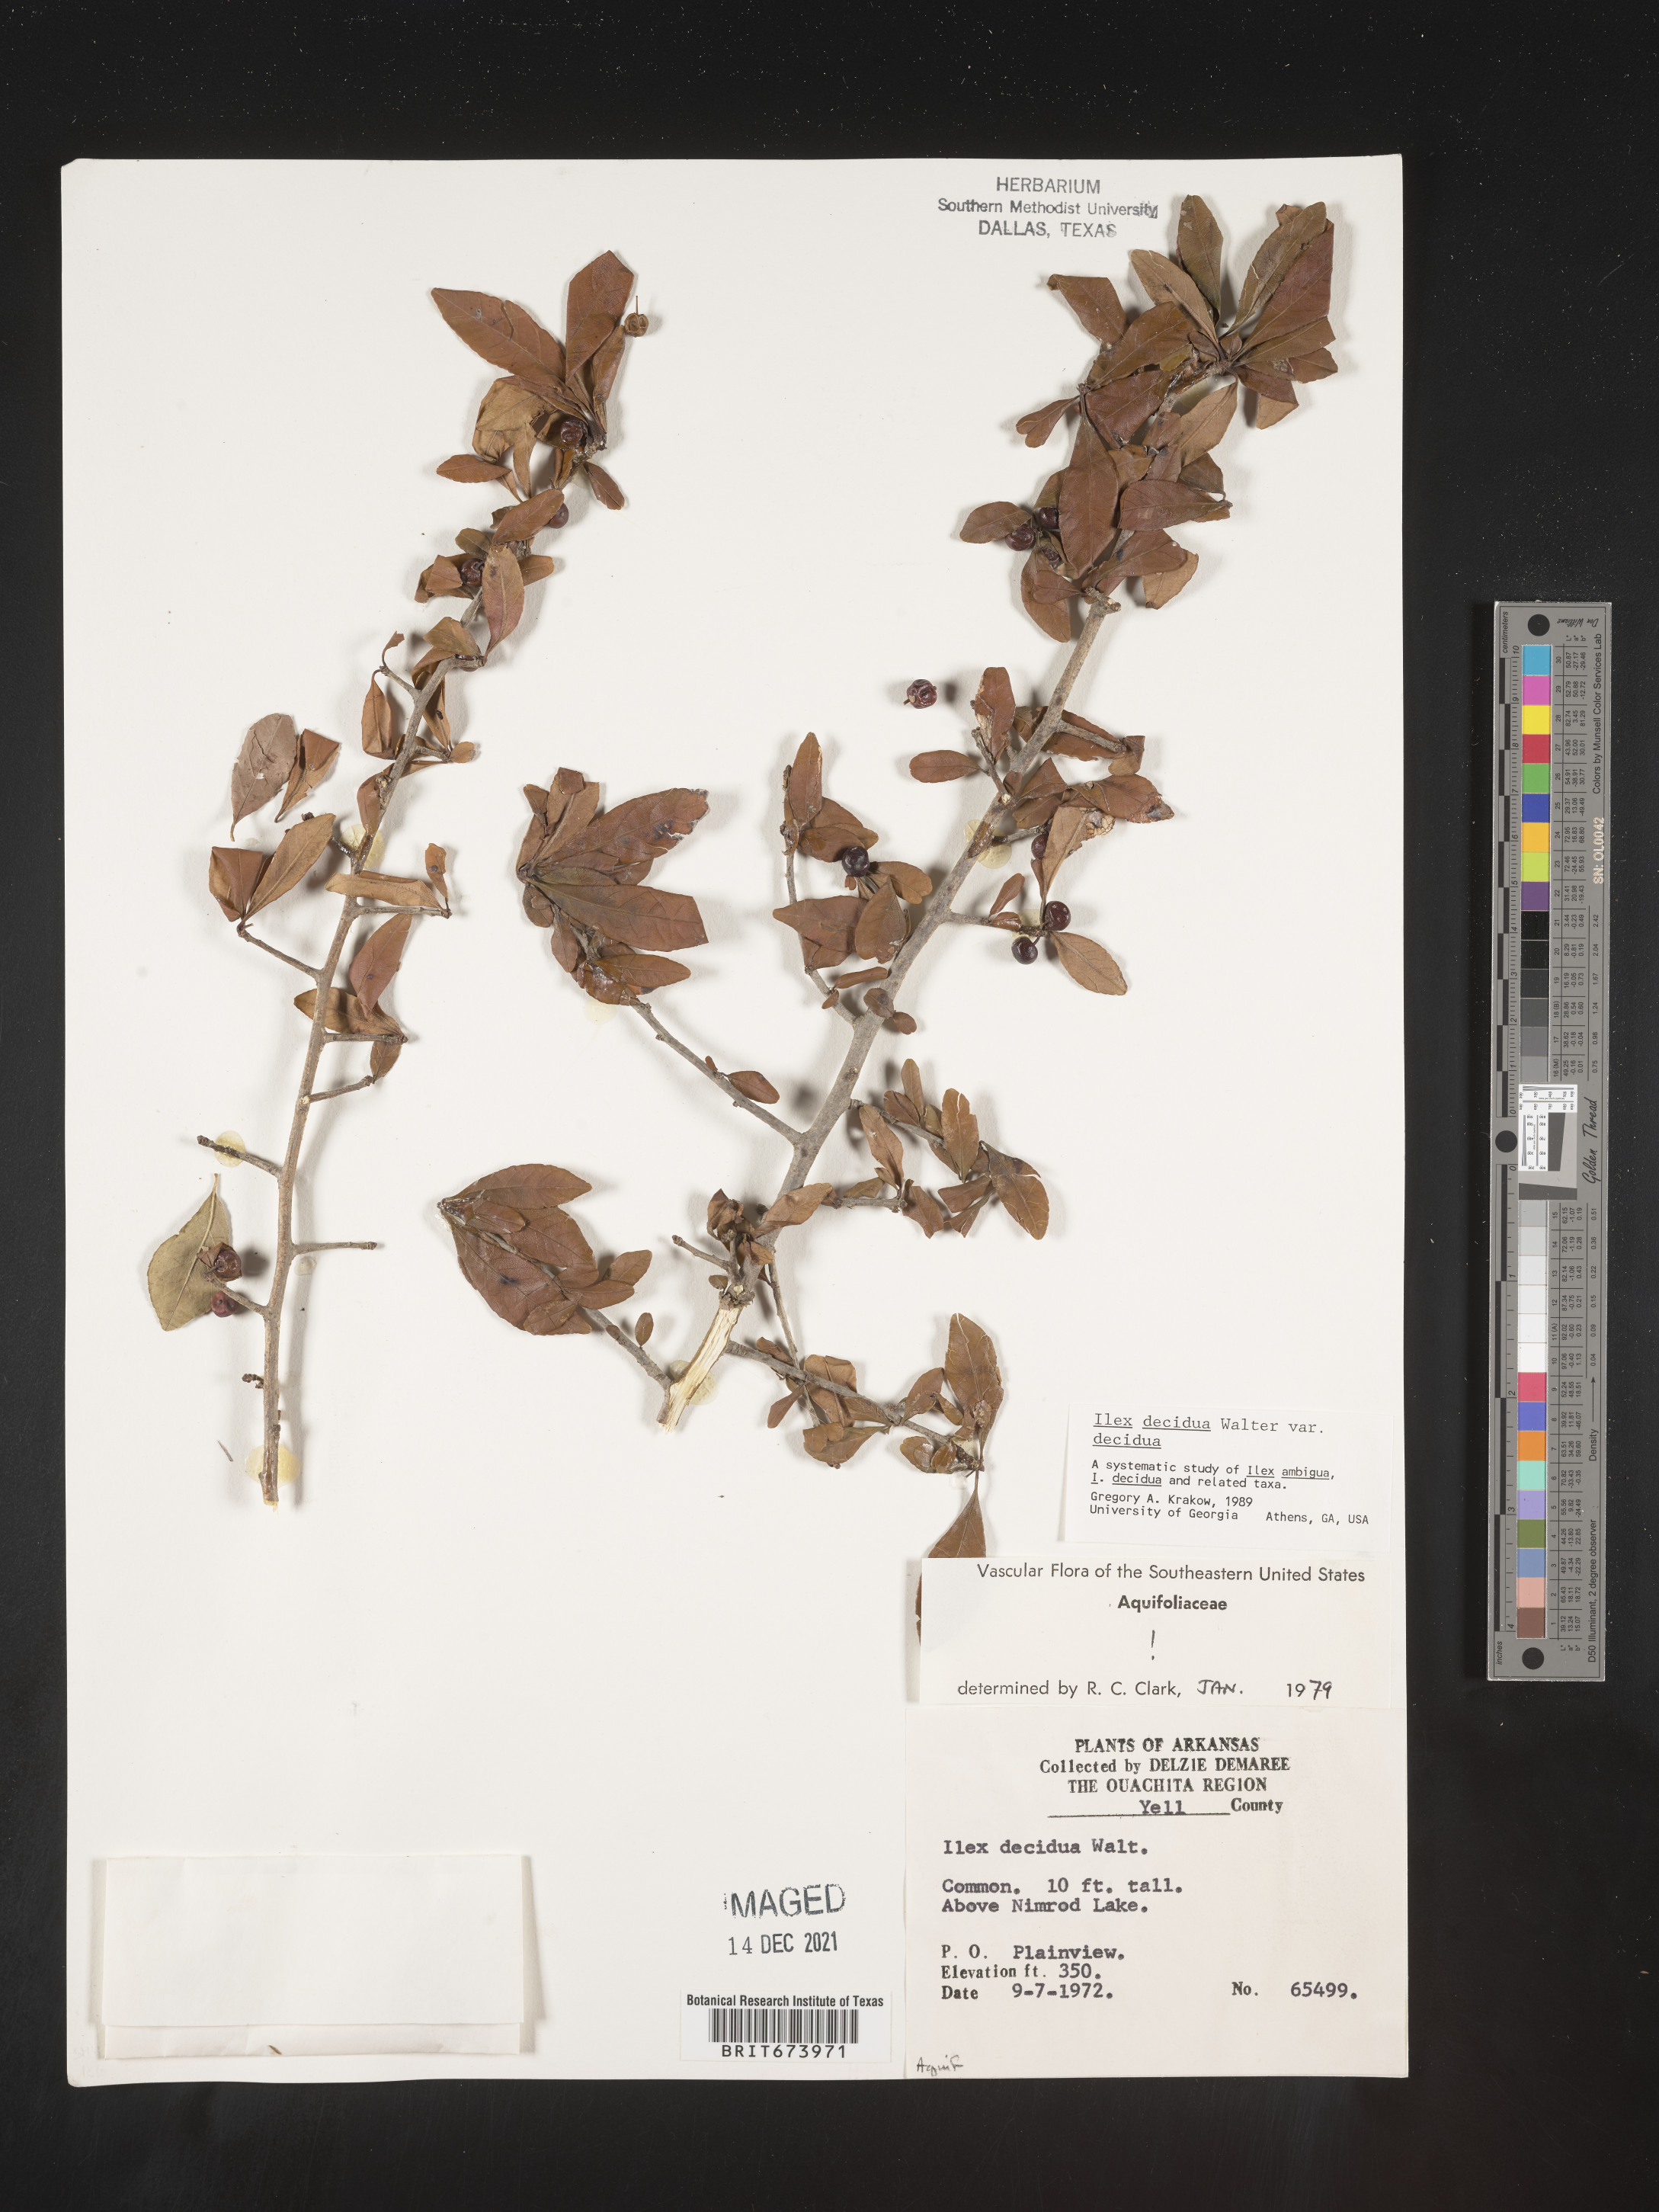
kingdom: Plantae
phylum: Tracheophyta
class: Magnoliopsida
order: Aquifoliales
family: Aquifoliaceae
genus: Ilex
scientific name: Ilex decidua
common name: Possum-haw
